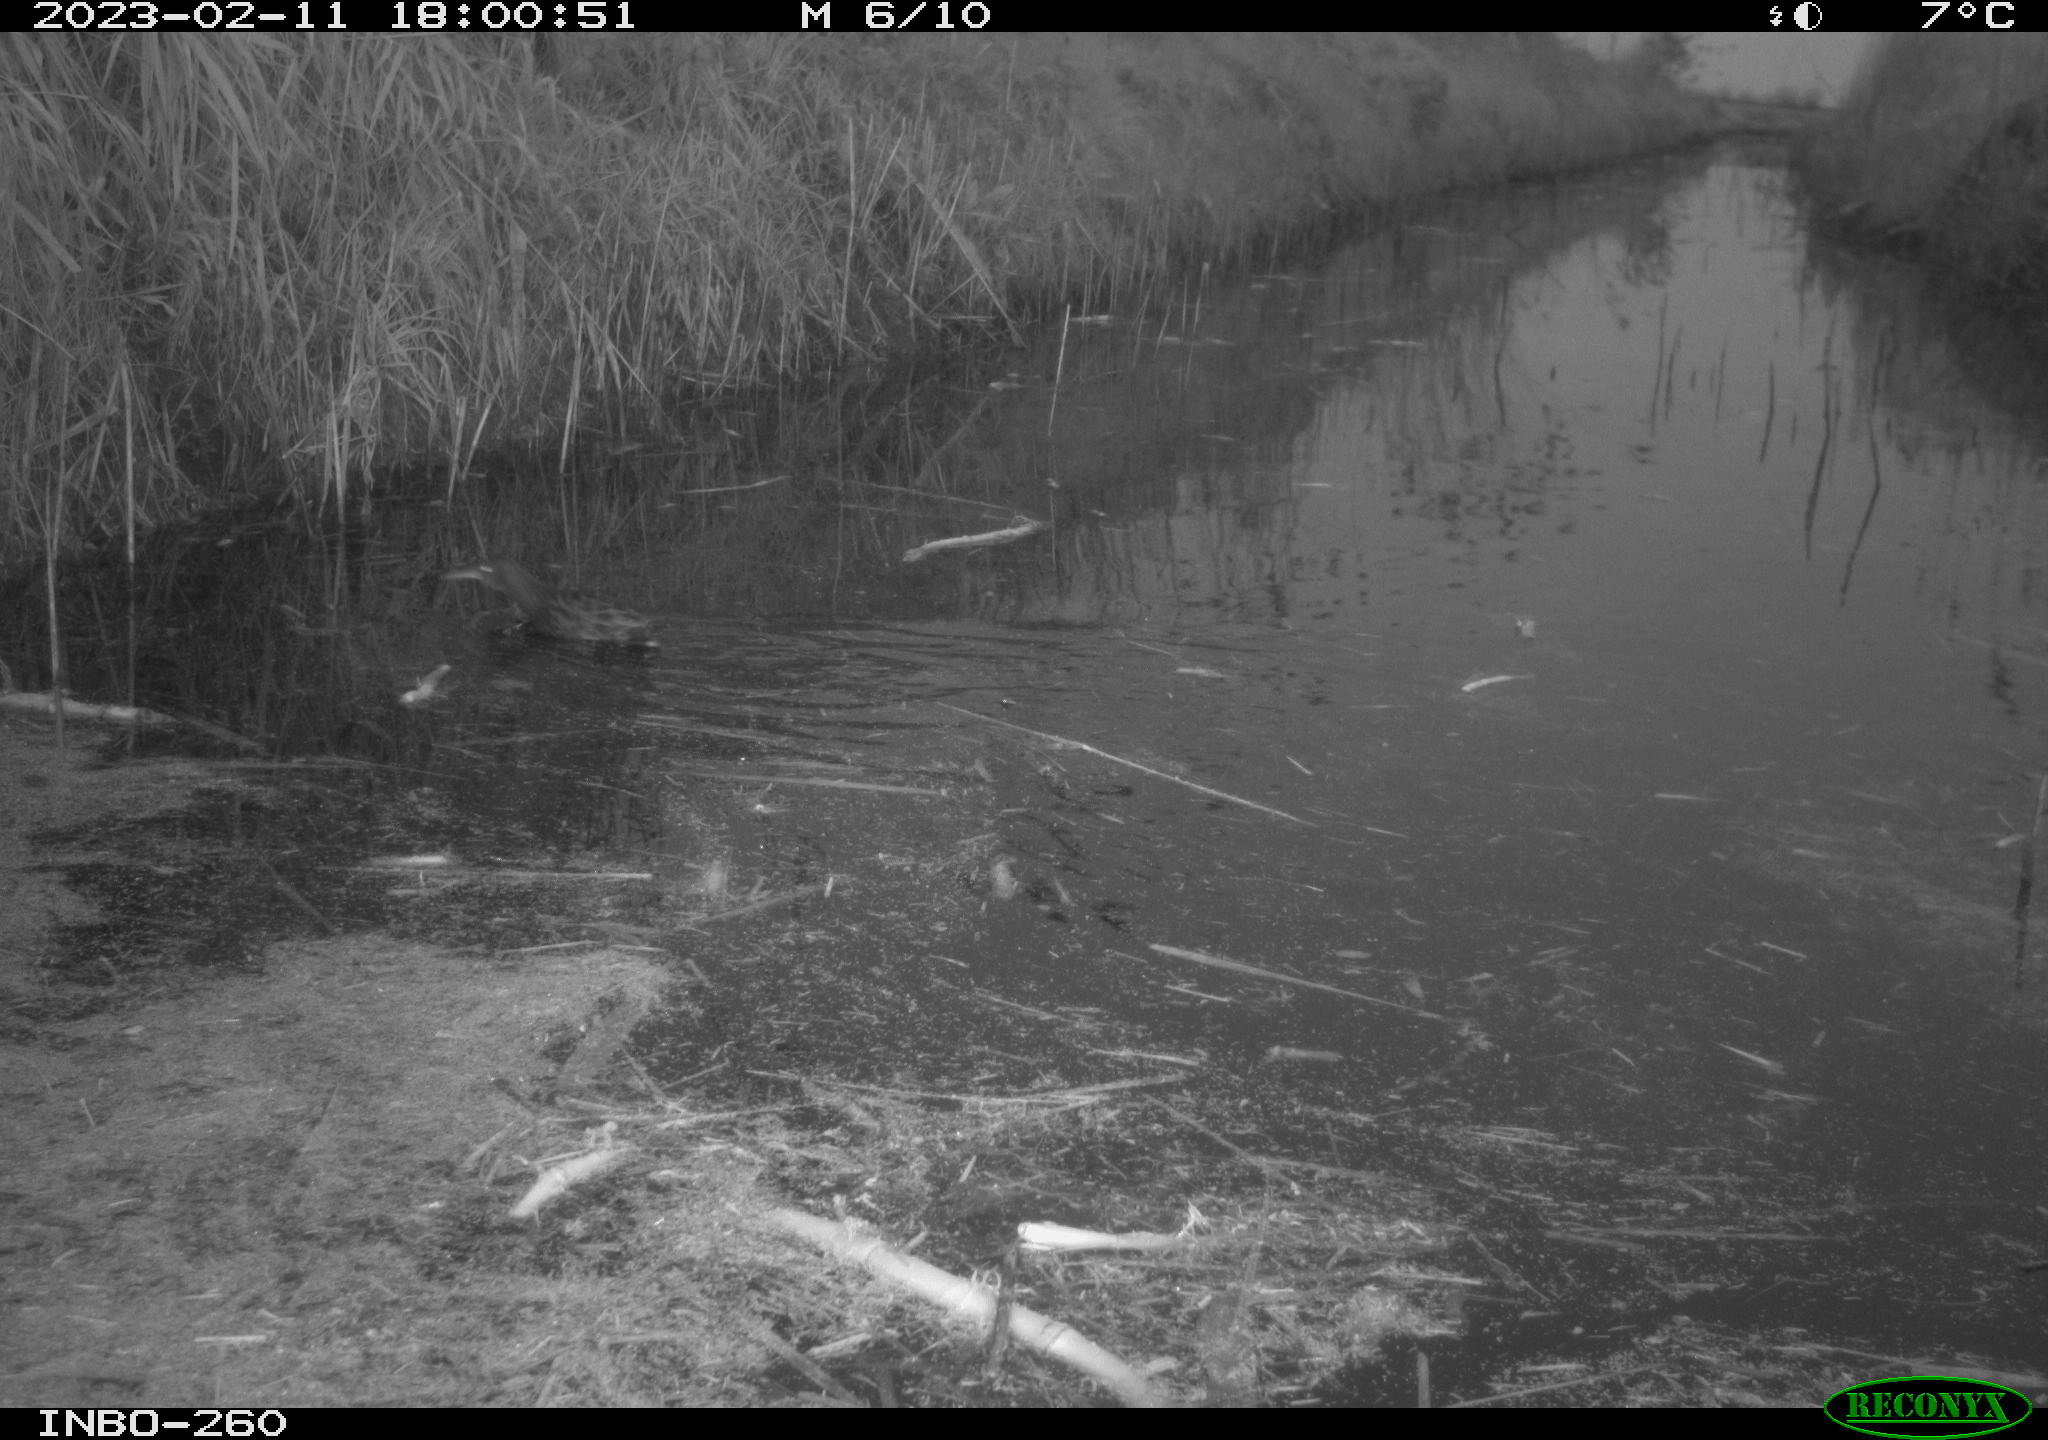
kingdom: Animalia
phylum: Chordata
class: Aves
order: Anseriformes
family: Anatidae
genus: Anas
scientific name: Anas
